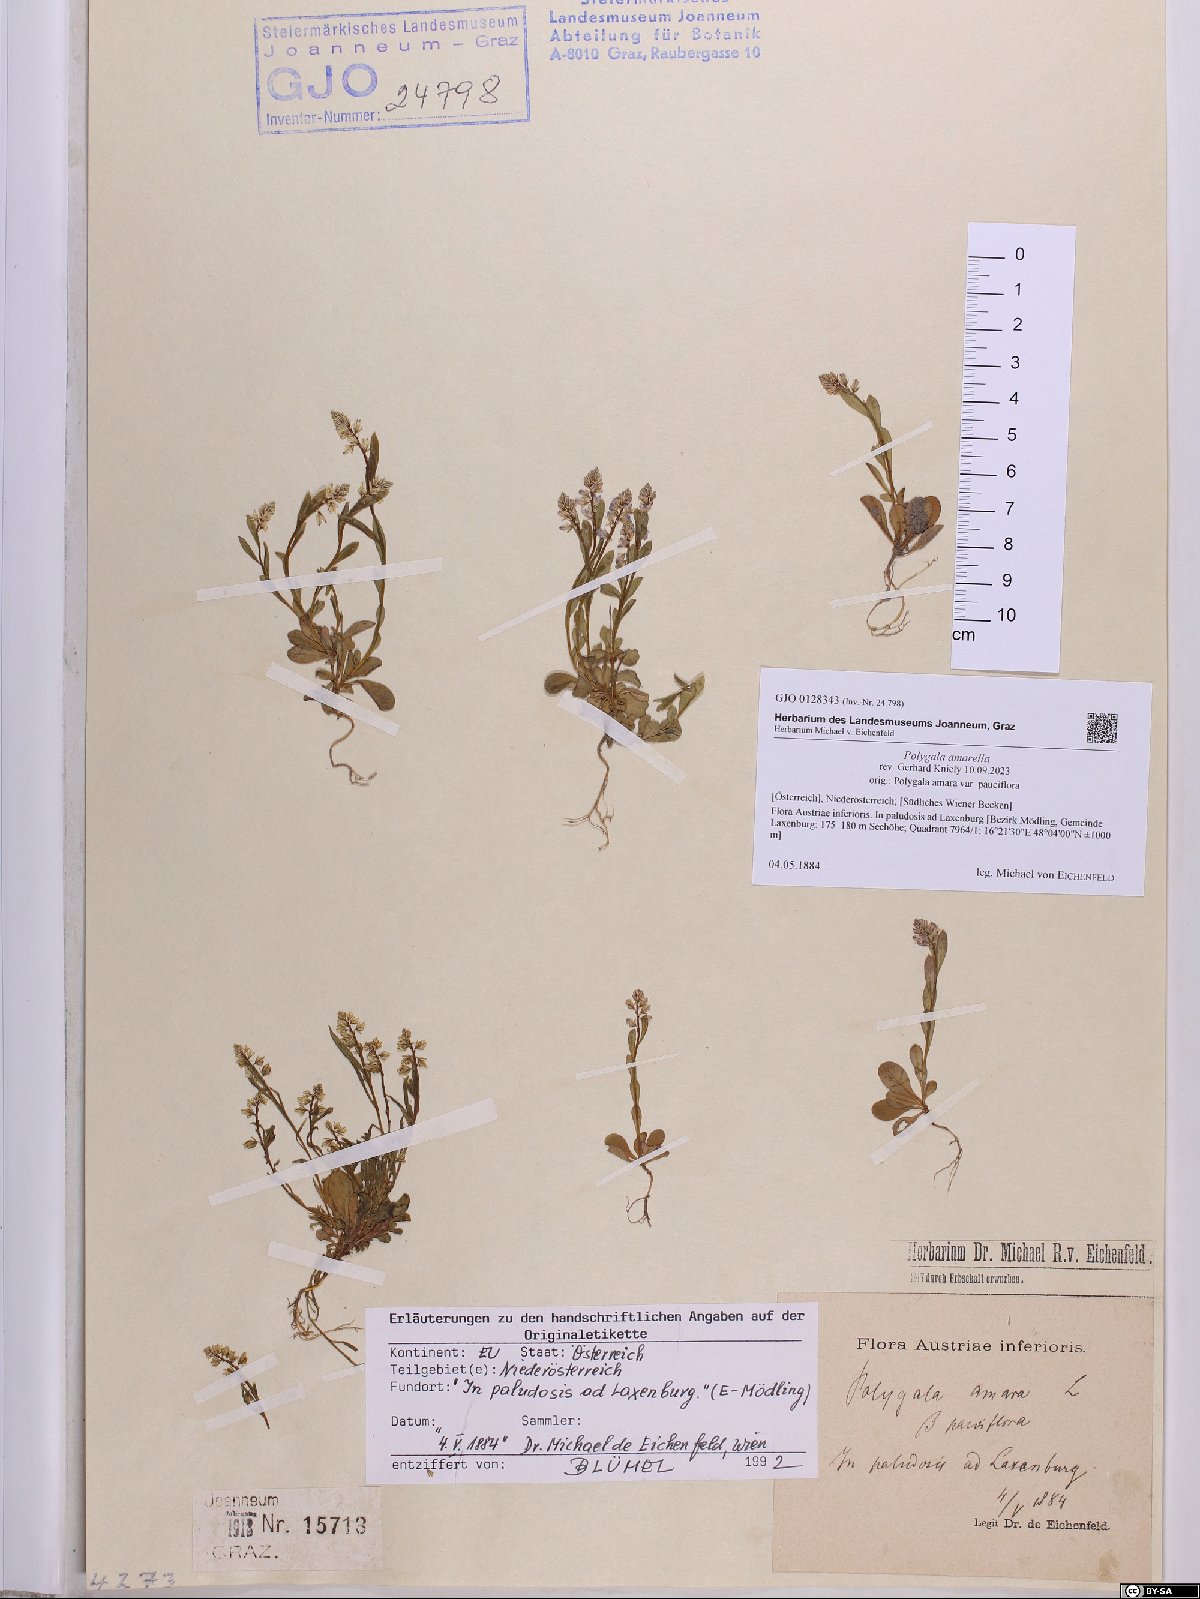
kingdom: Plantae
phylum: Tracheophyta
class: Magnoliopsida
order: Fabales
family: Polygalaceae
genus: Polygala
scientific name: Polygala amarella
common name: Dwarf milkwort
